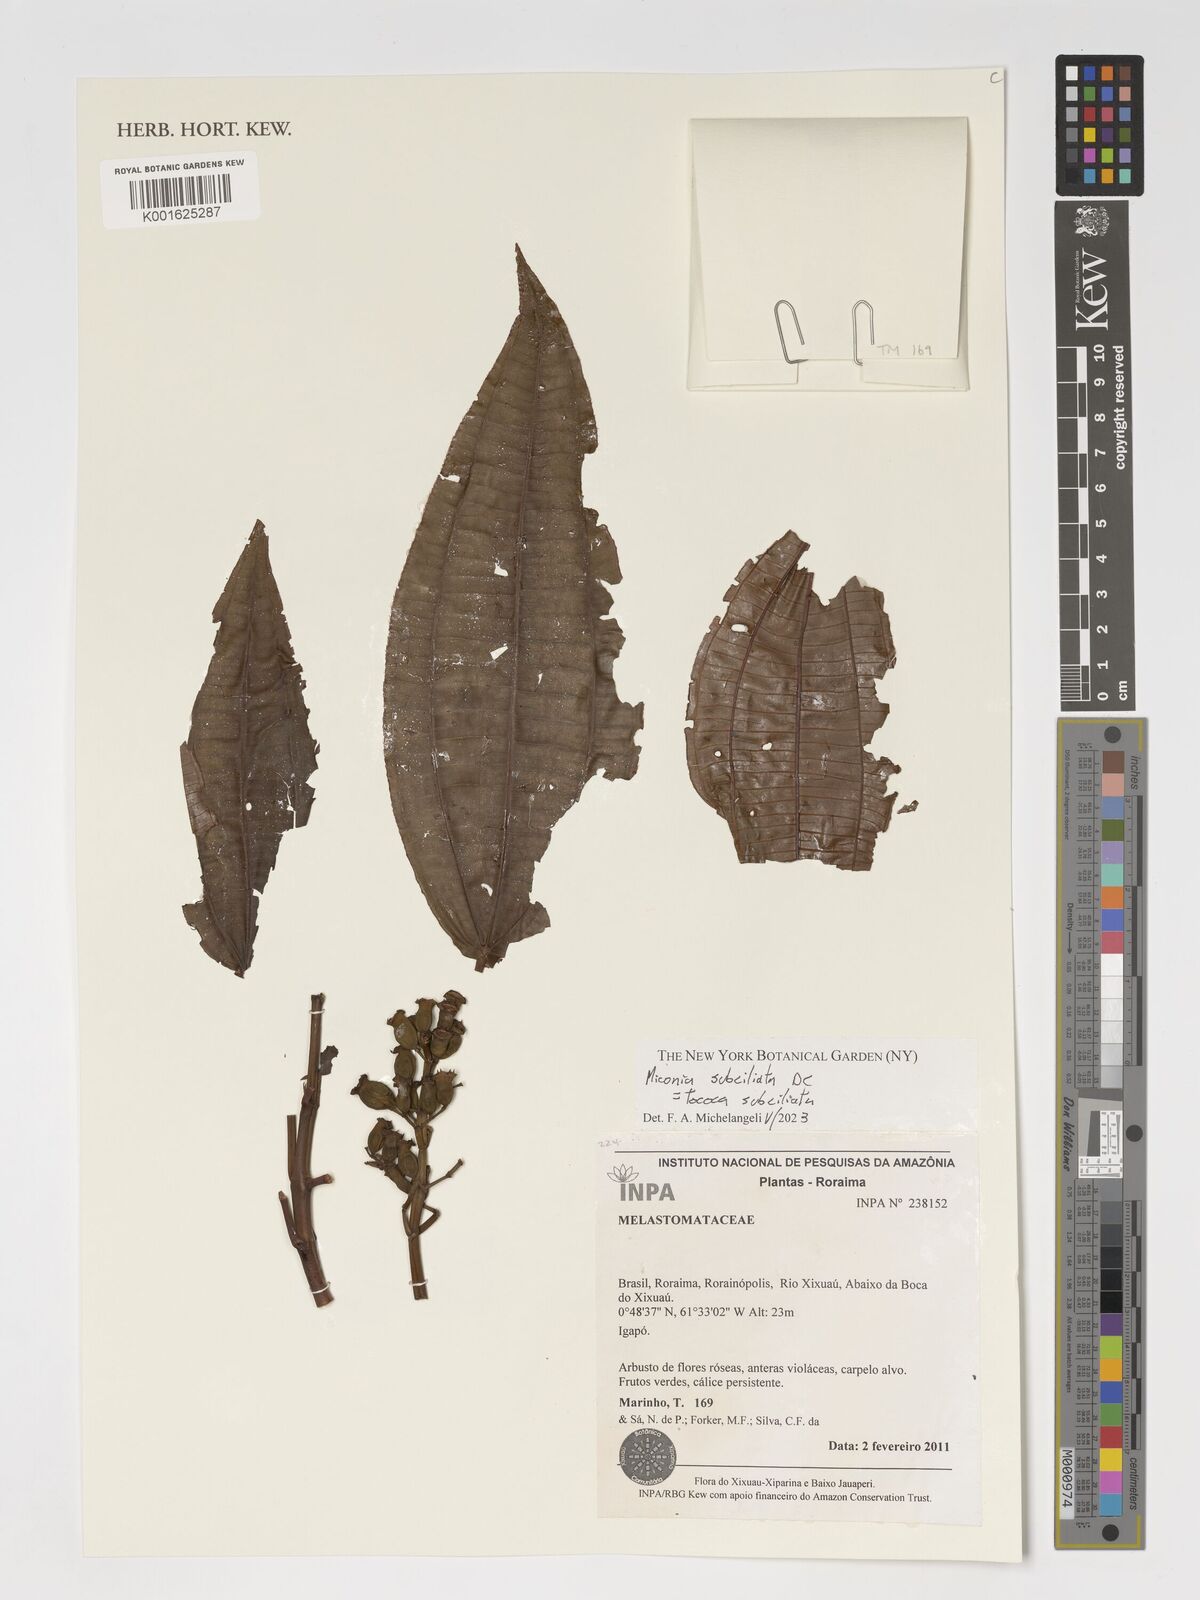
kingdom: Plantae
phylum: Tracheophyta
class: Magnoliopsida
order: Myrtales
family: Melastomataceae
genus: Miconia
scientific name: Miconia subciliata
